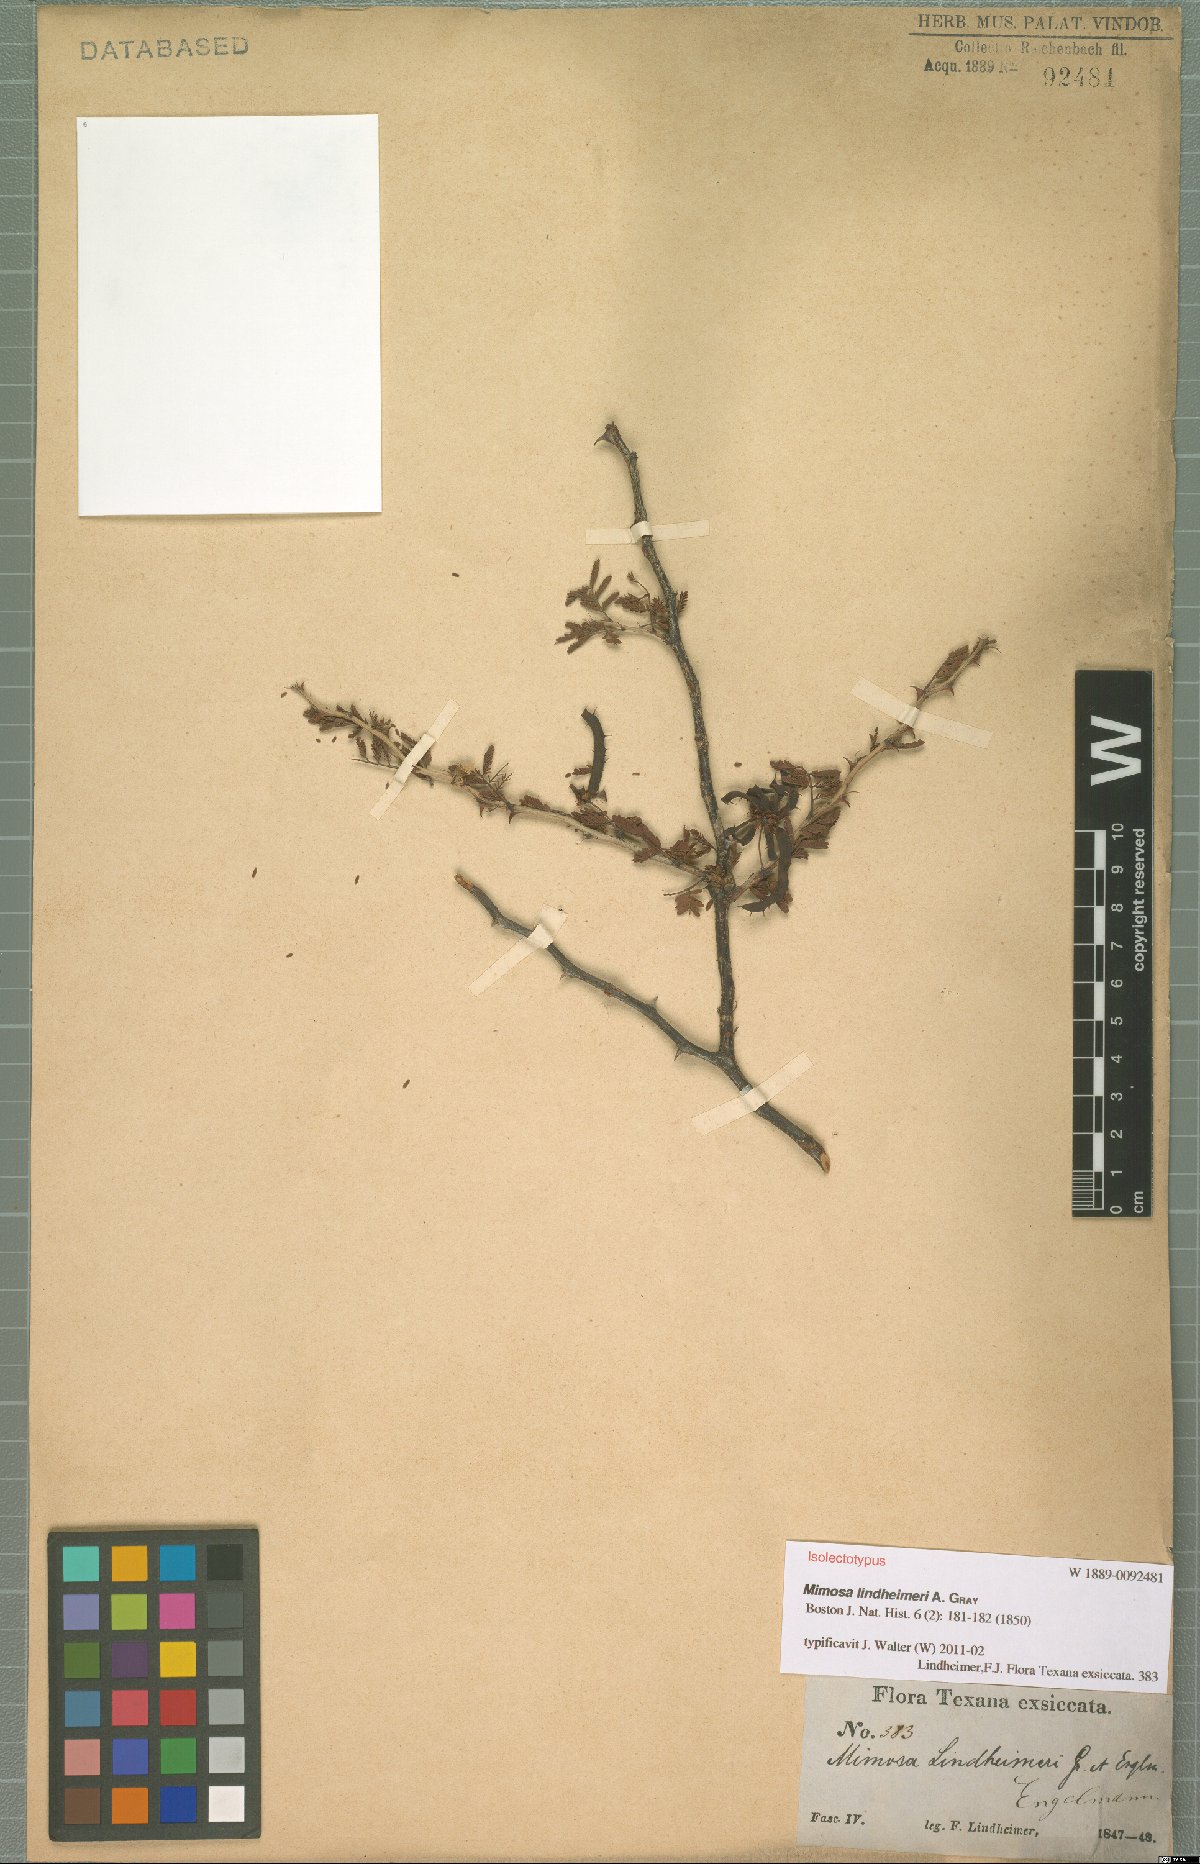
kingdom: Plantae
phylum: Tracheophyta
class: Magnoliopsida
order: Fabales
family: Fabaceae
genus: Mimosa
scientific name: Mimosa biuncifera
